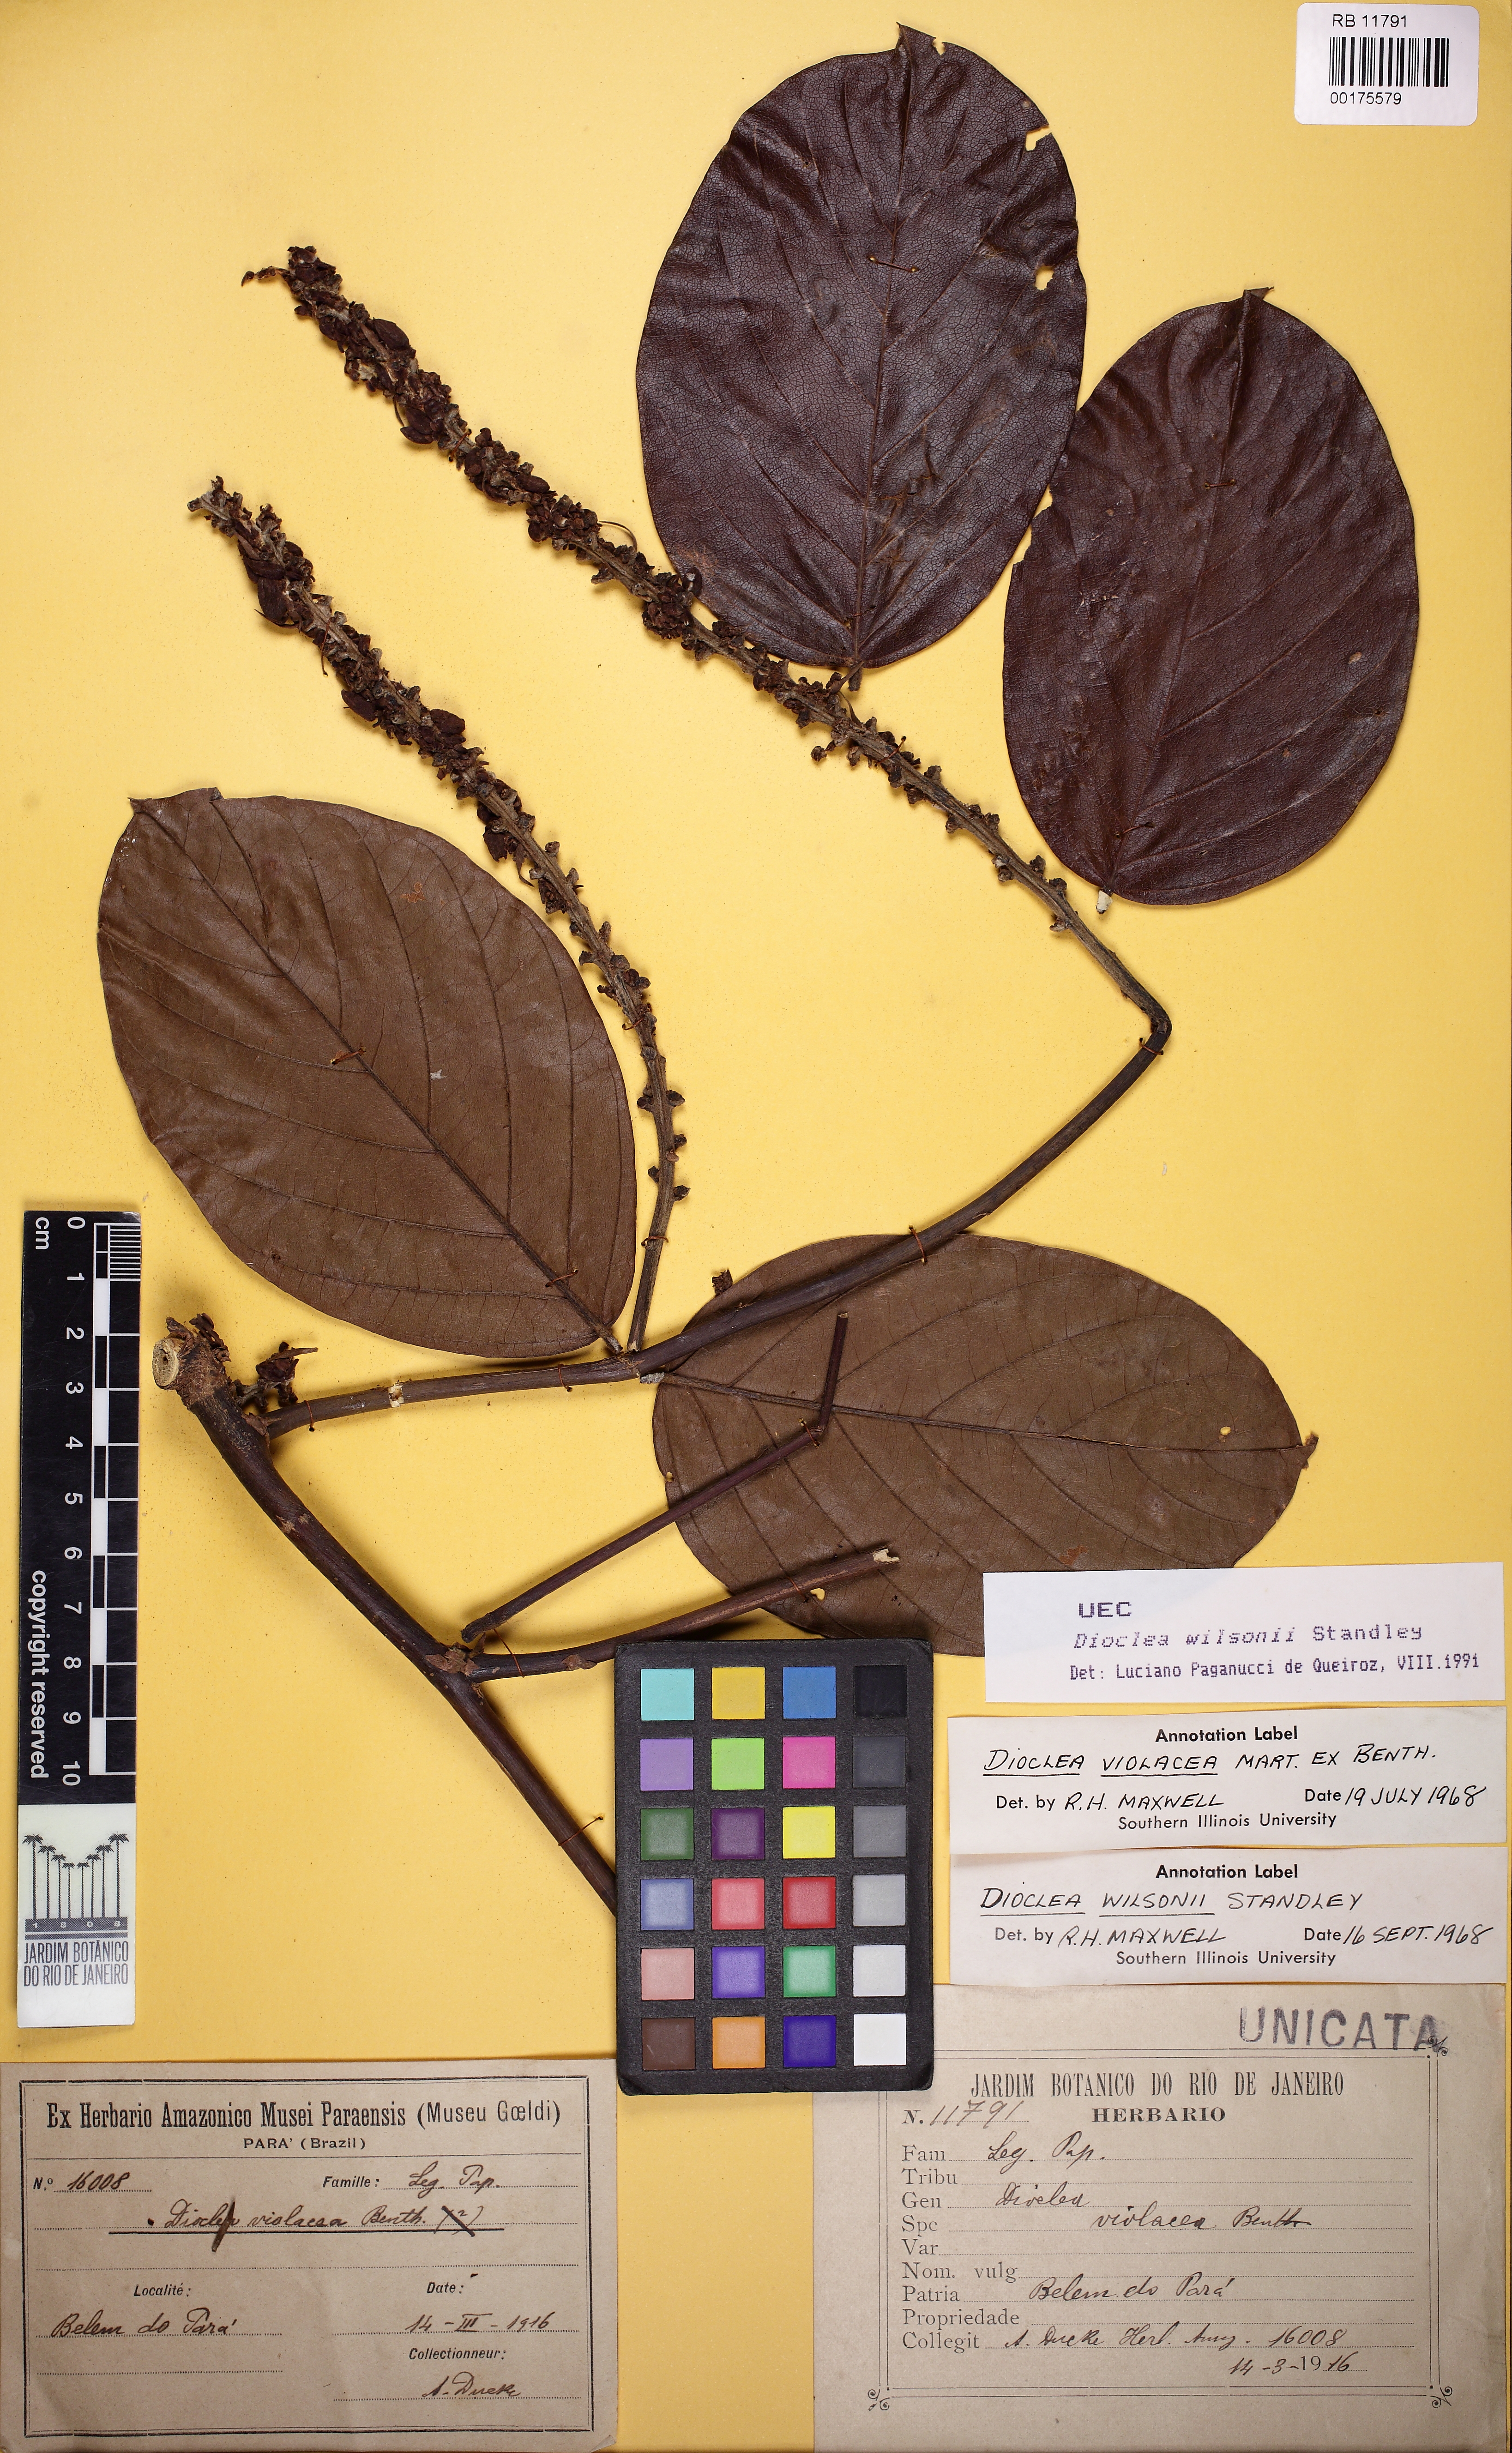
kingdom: Plantae
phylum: Tracheophyta
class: Magnoliopsida
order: Fabales
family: Fabaceae
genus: Macropsychanthus
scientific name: Macropsychanthus wilsonii
